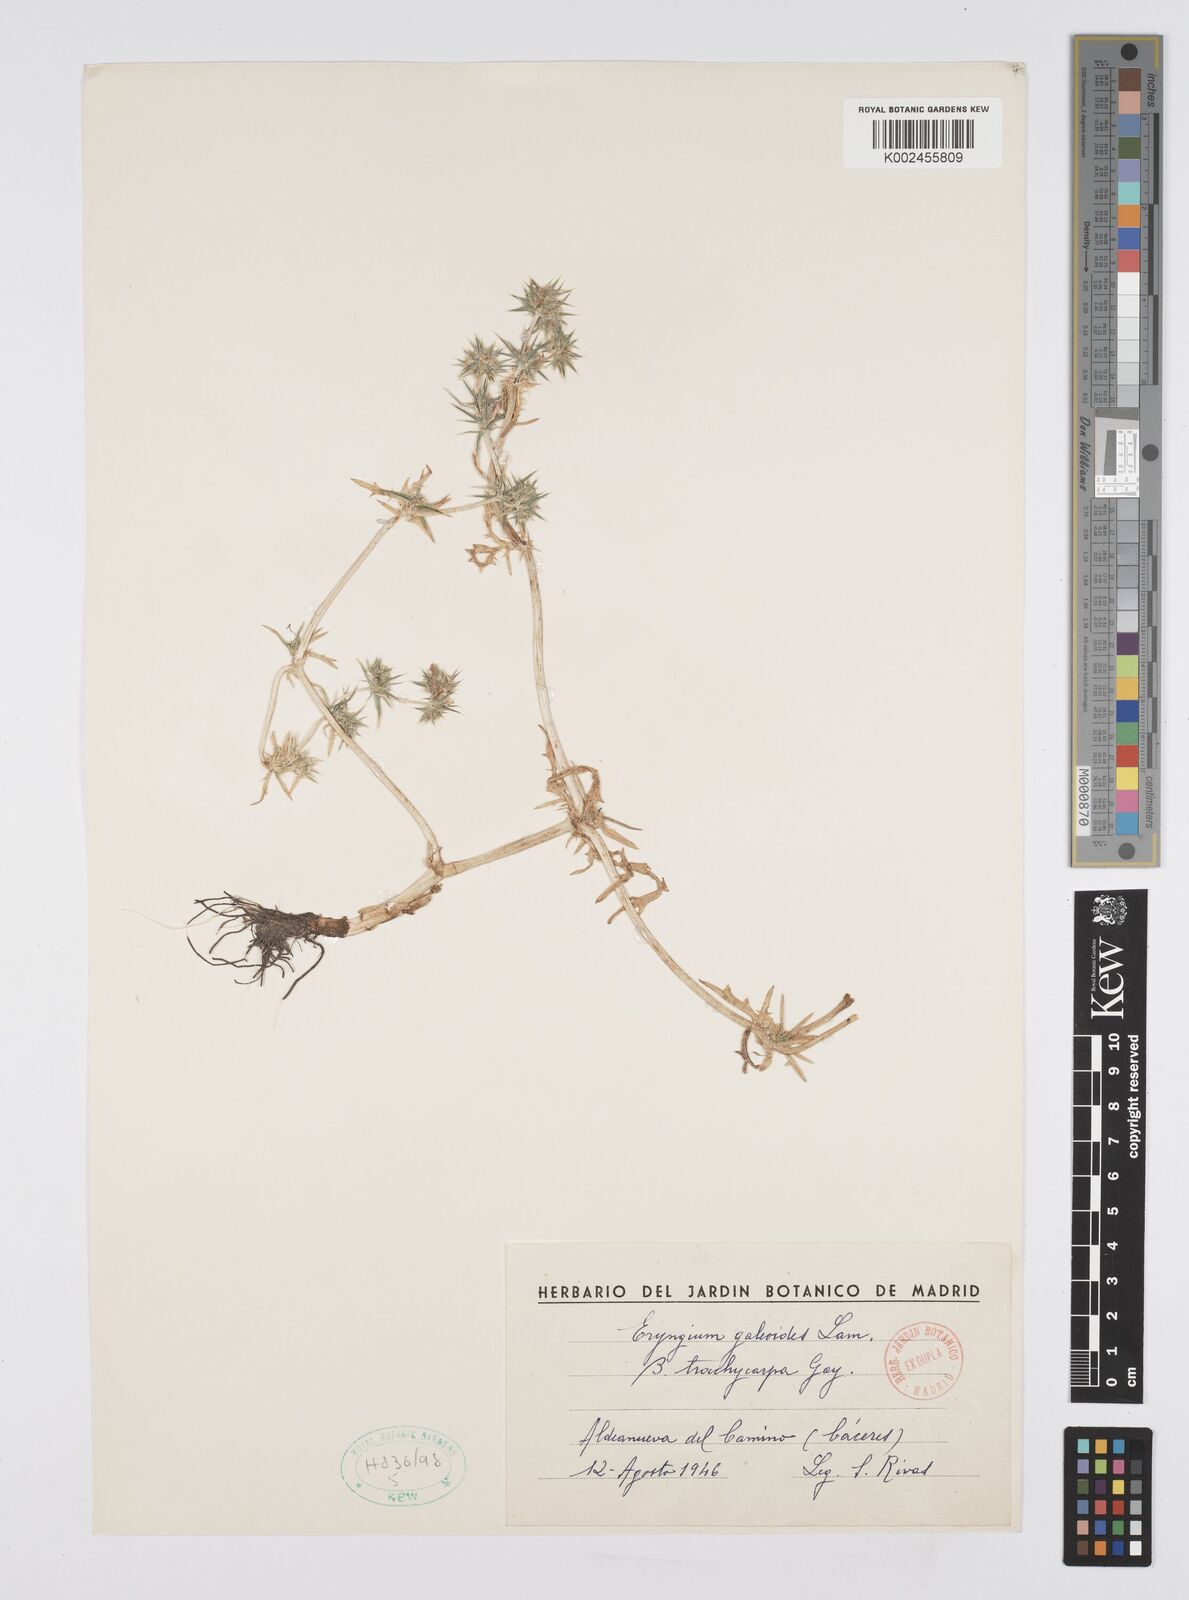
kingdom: Plantae
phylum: Tracheophyta
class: Magnoliopsida
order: Apiales
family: Apiaceae
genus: Eryngium
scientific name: Eryngium galioides
